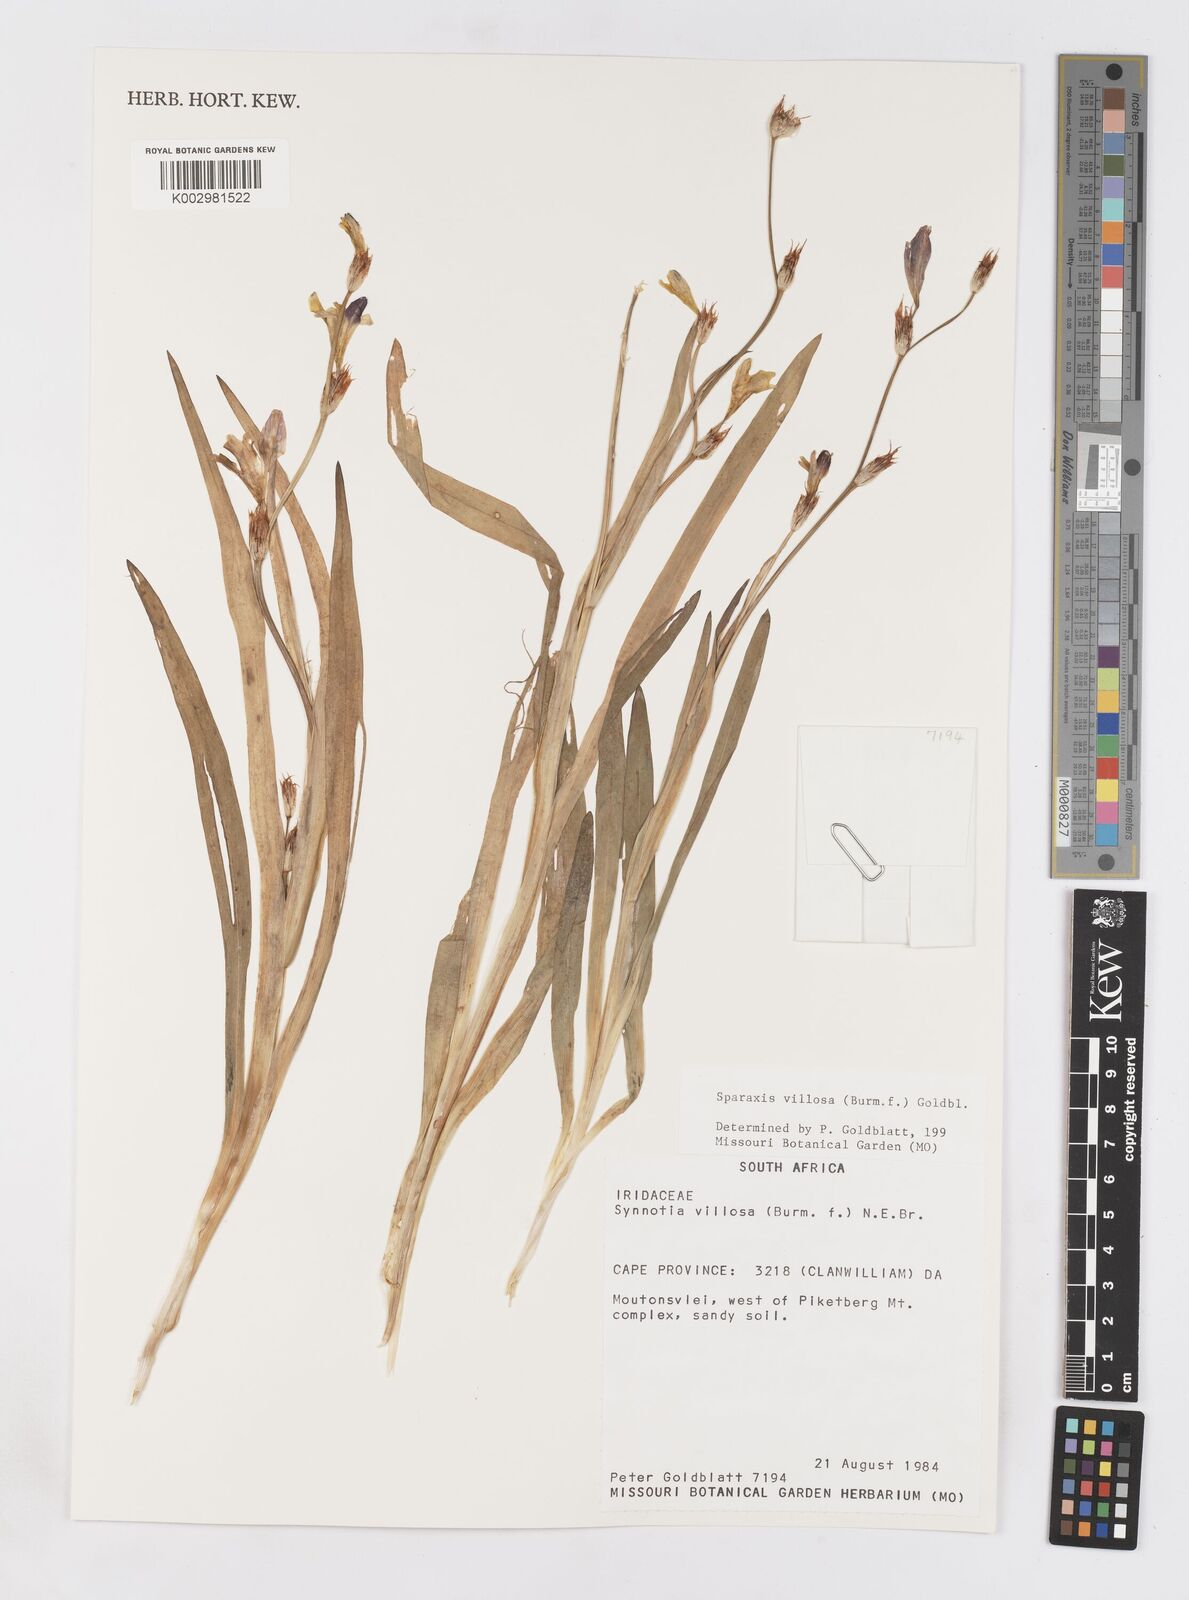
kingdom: Plantae
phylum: Tracheophyta
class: Liliopsida
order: Asparagales
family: Iridaceae
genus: Sparaxis
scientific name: Sparaxis villosa
